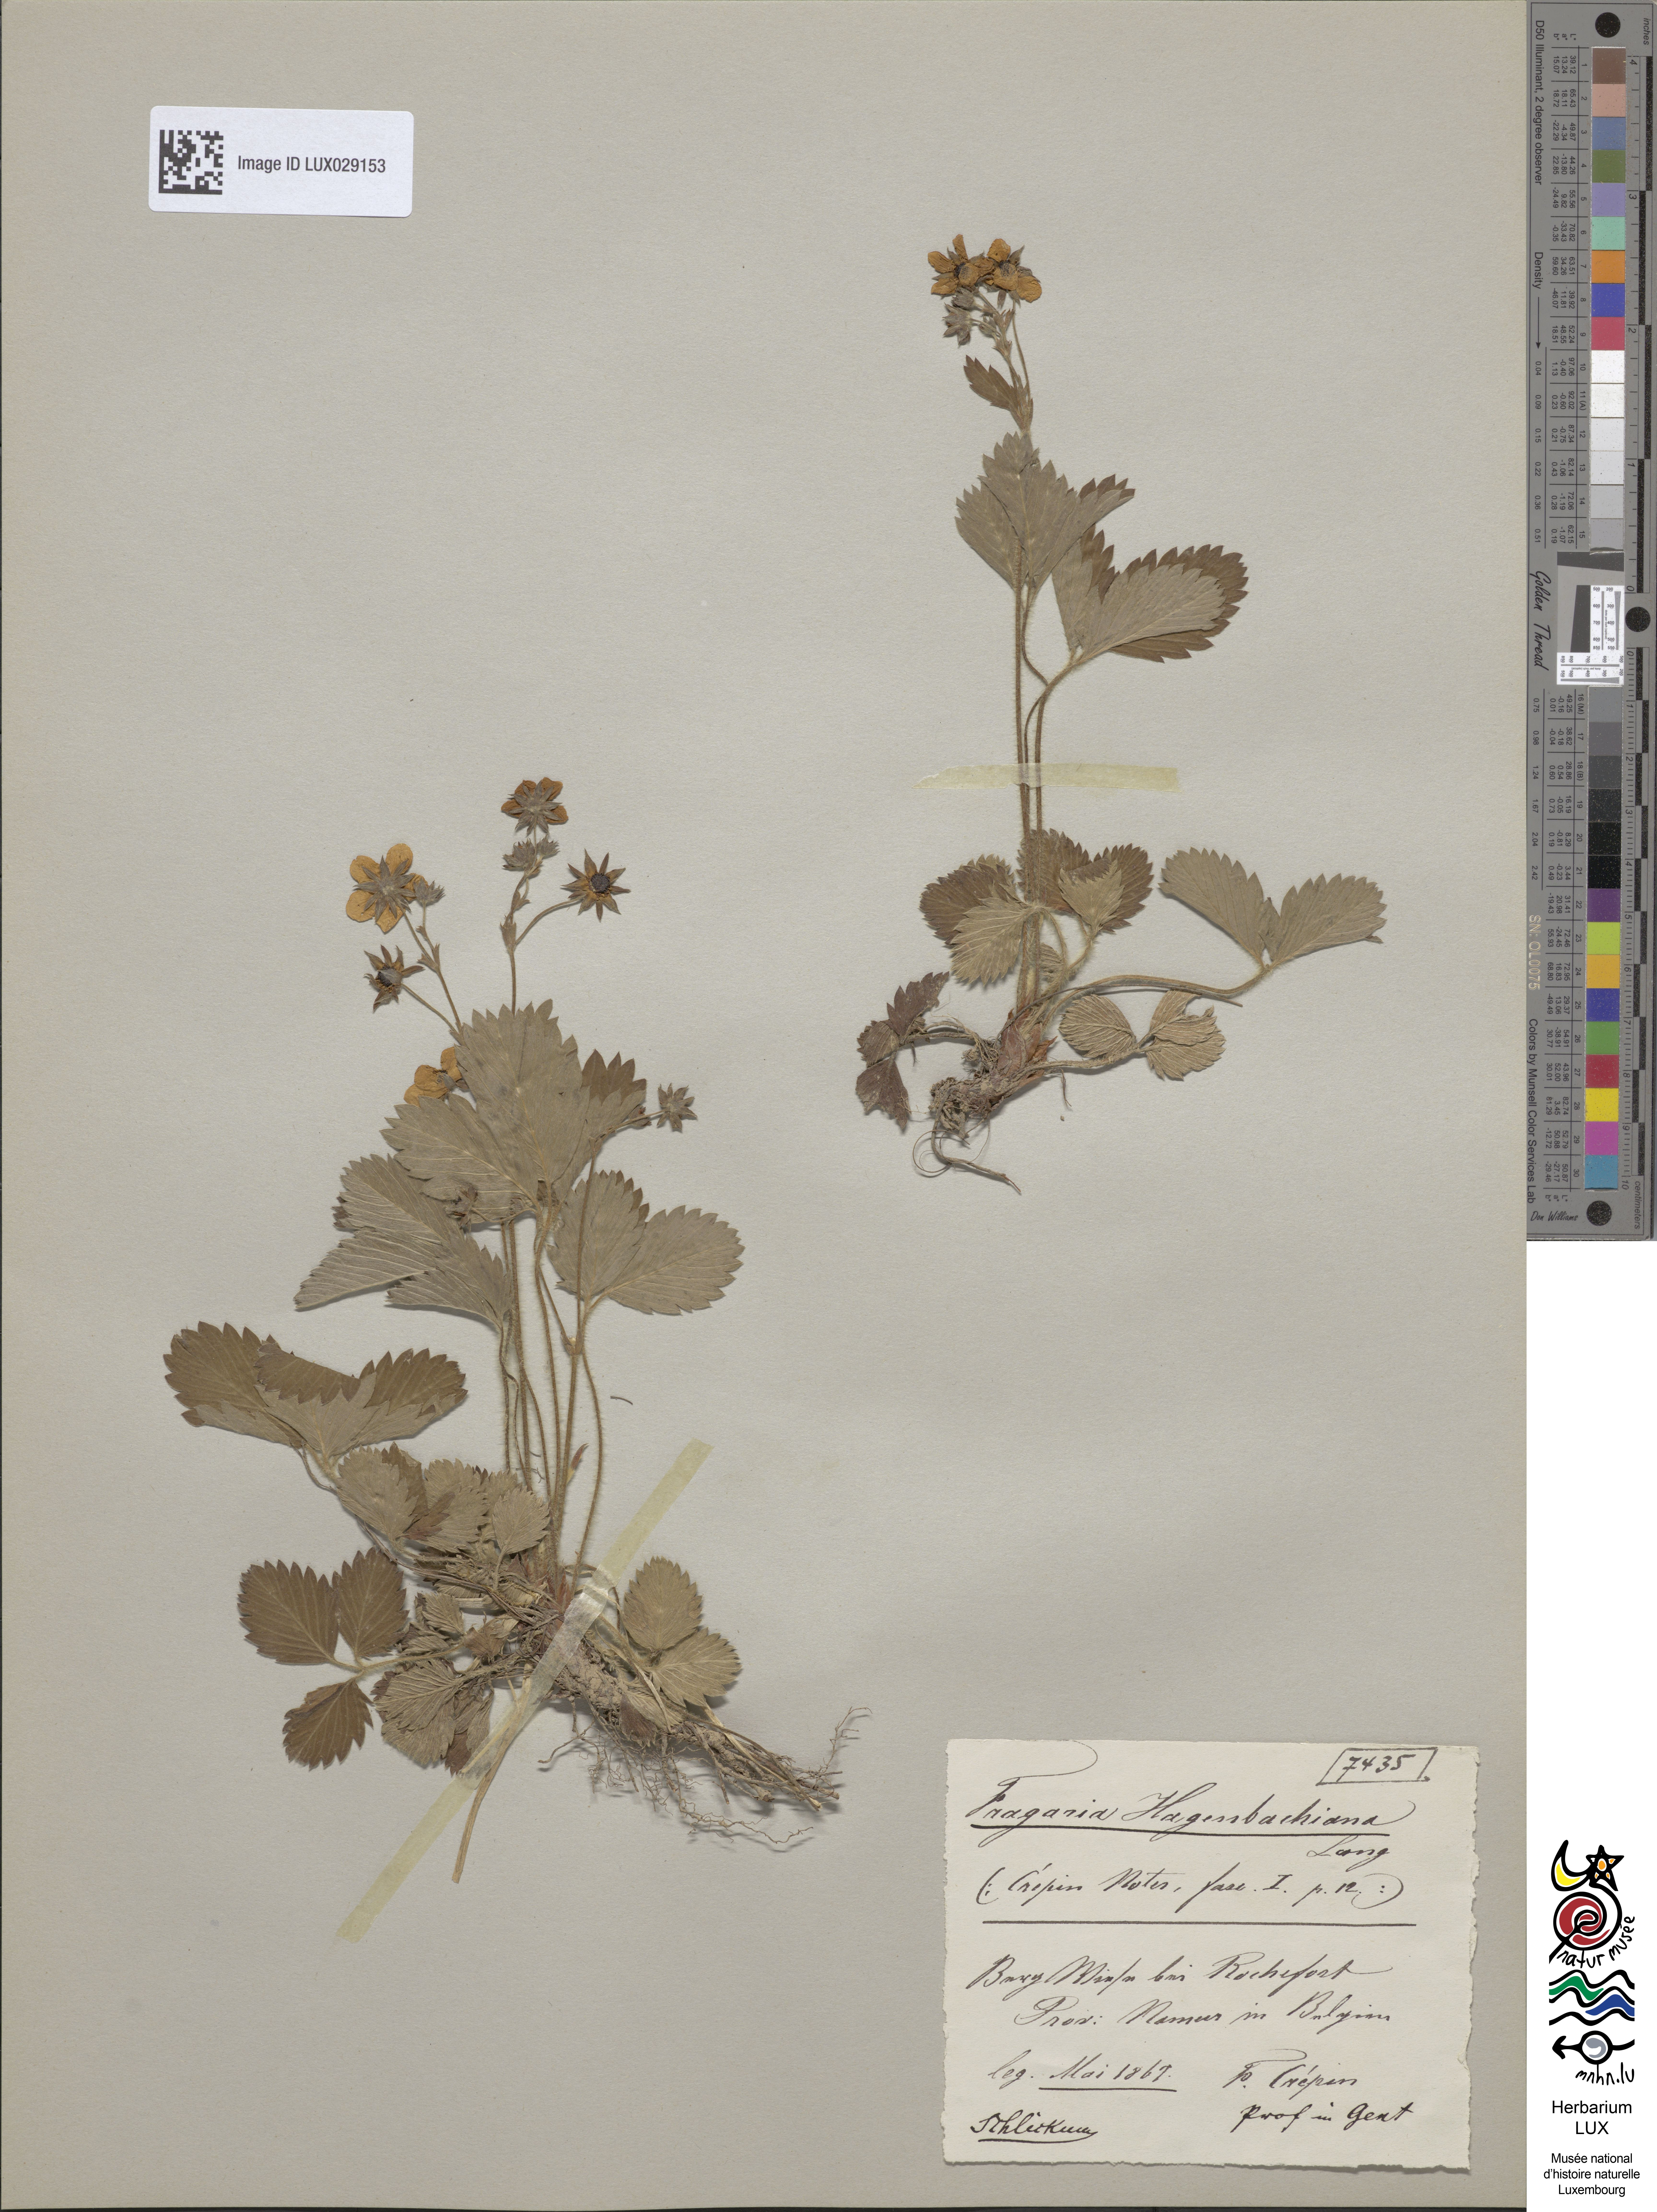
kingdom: Plantae
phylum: Tracheophyta
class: Magnoliopsida
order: Rosales
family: Rosaceae
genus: Fragaria
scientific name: Fragaria bifera
